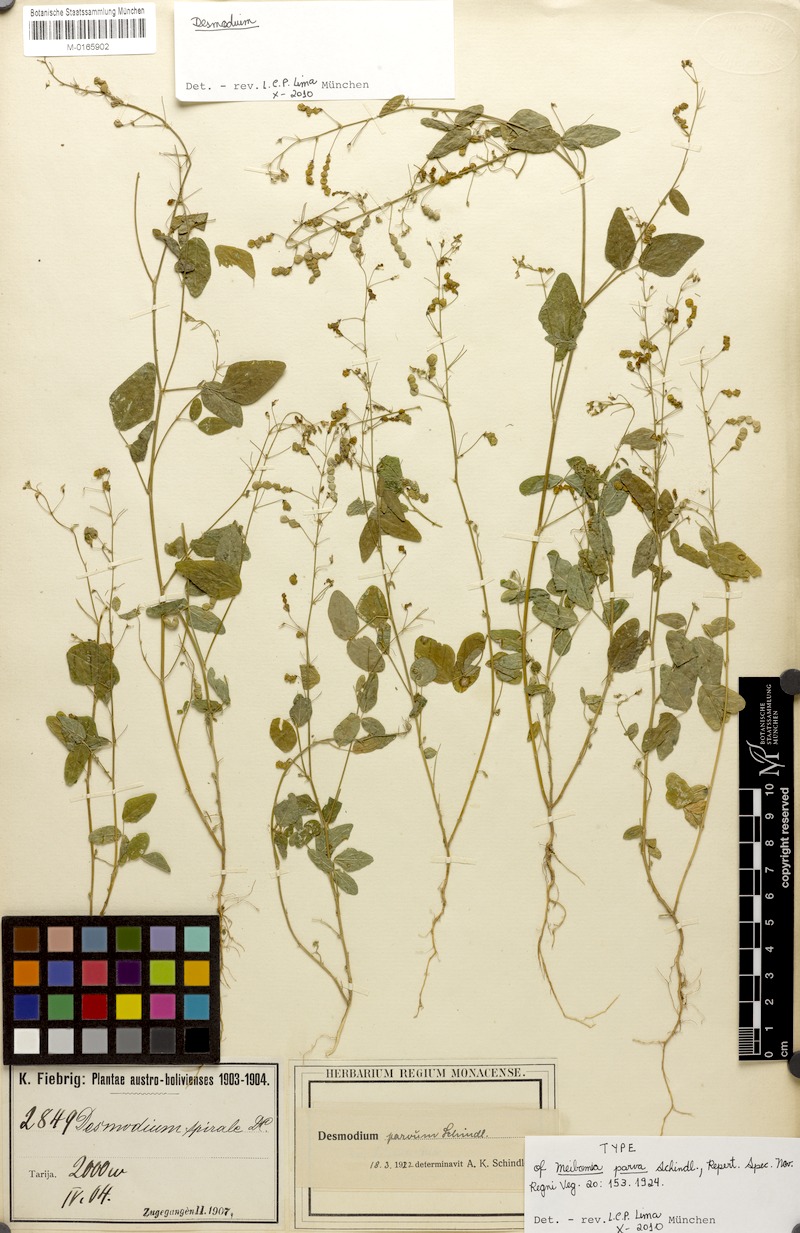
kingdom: Plantae
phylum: Tracheophyta
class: Magnoliopsida
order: Fabales
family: Fabaceae
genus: Desmodium
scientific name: Desmodium procumbens
